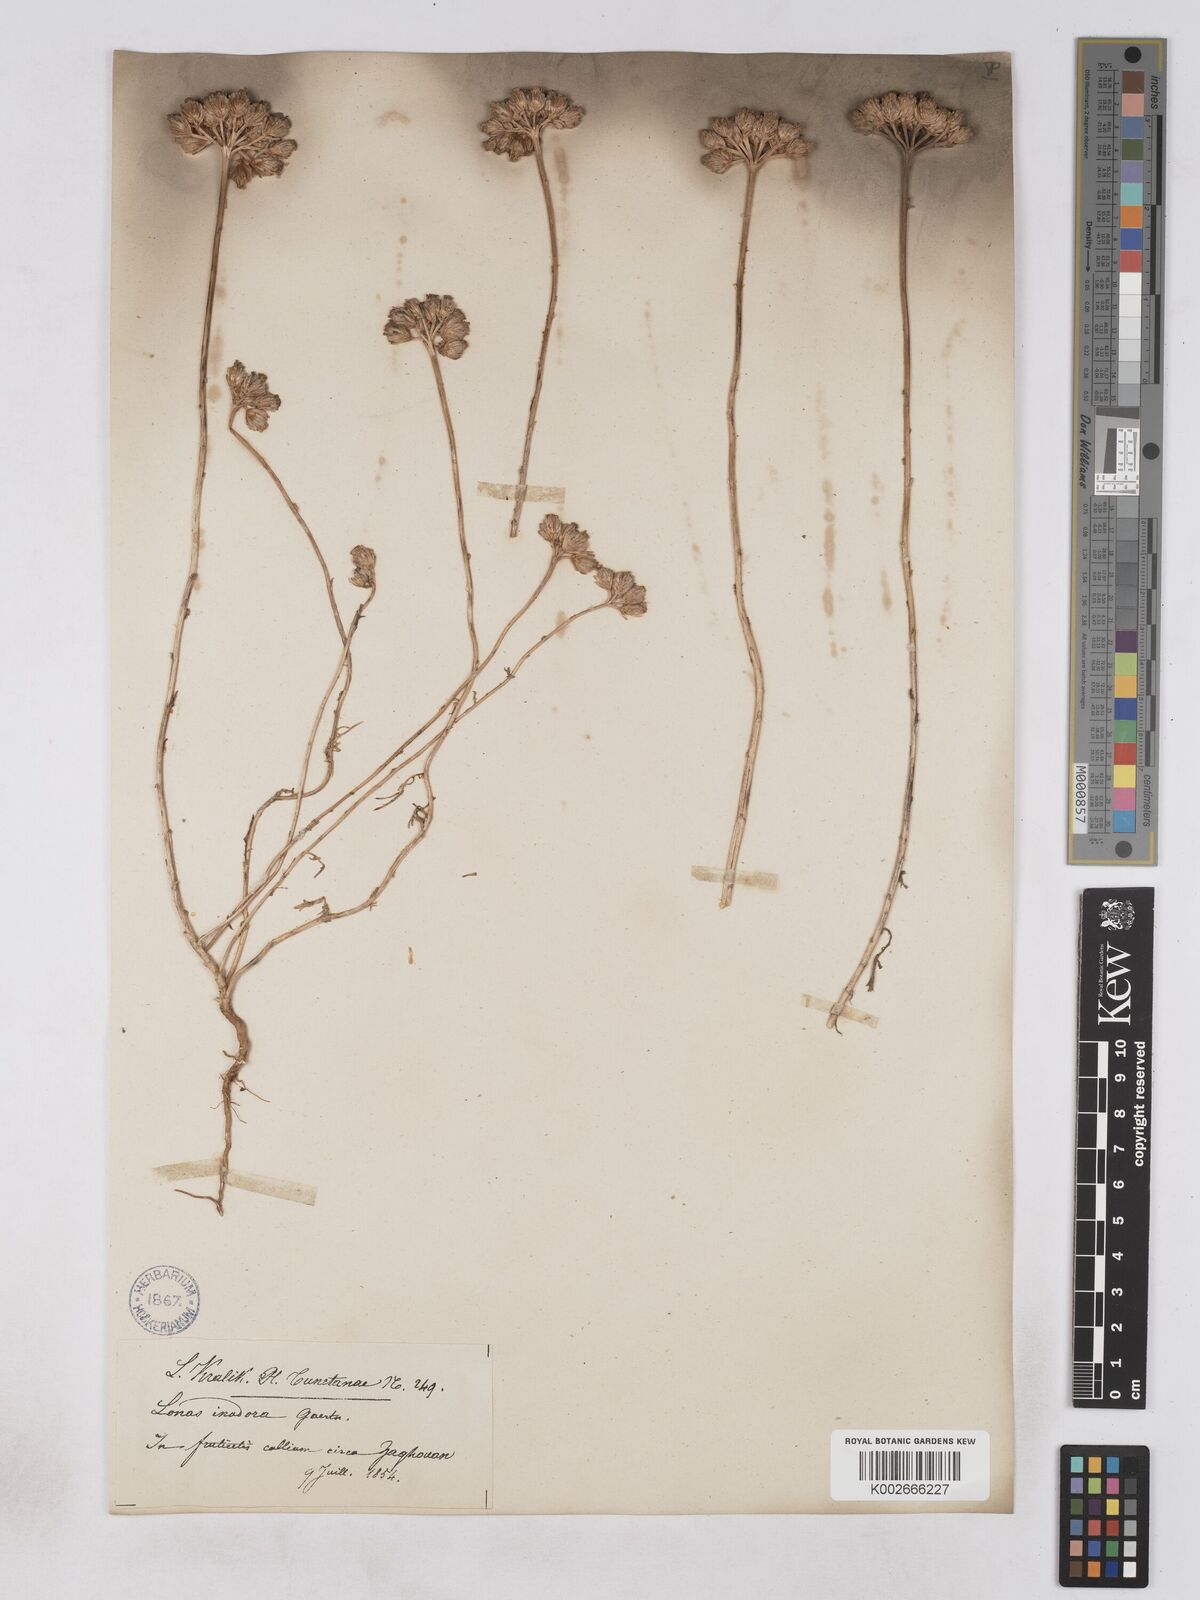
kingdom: Plantae
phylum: Tracheophyta
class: Magnoliopsida
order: Asterales
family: Asteraceae
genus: Lonas
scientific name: Lonas
